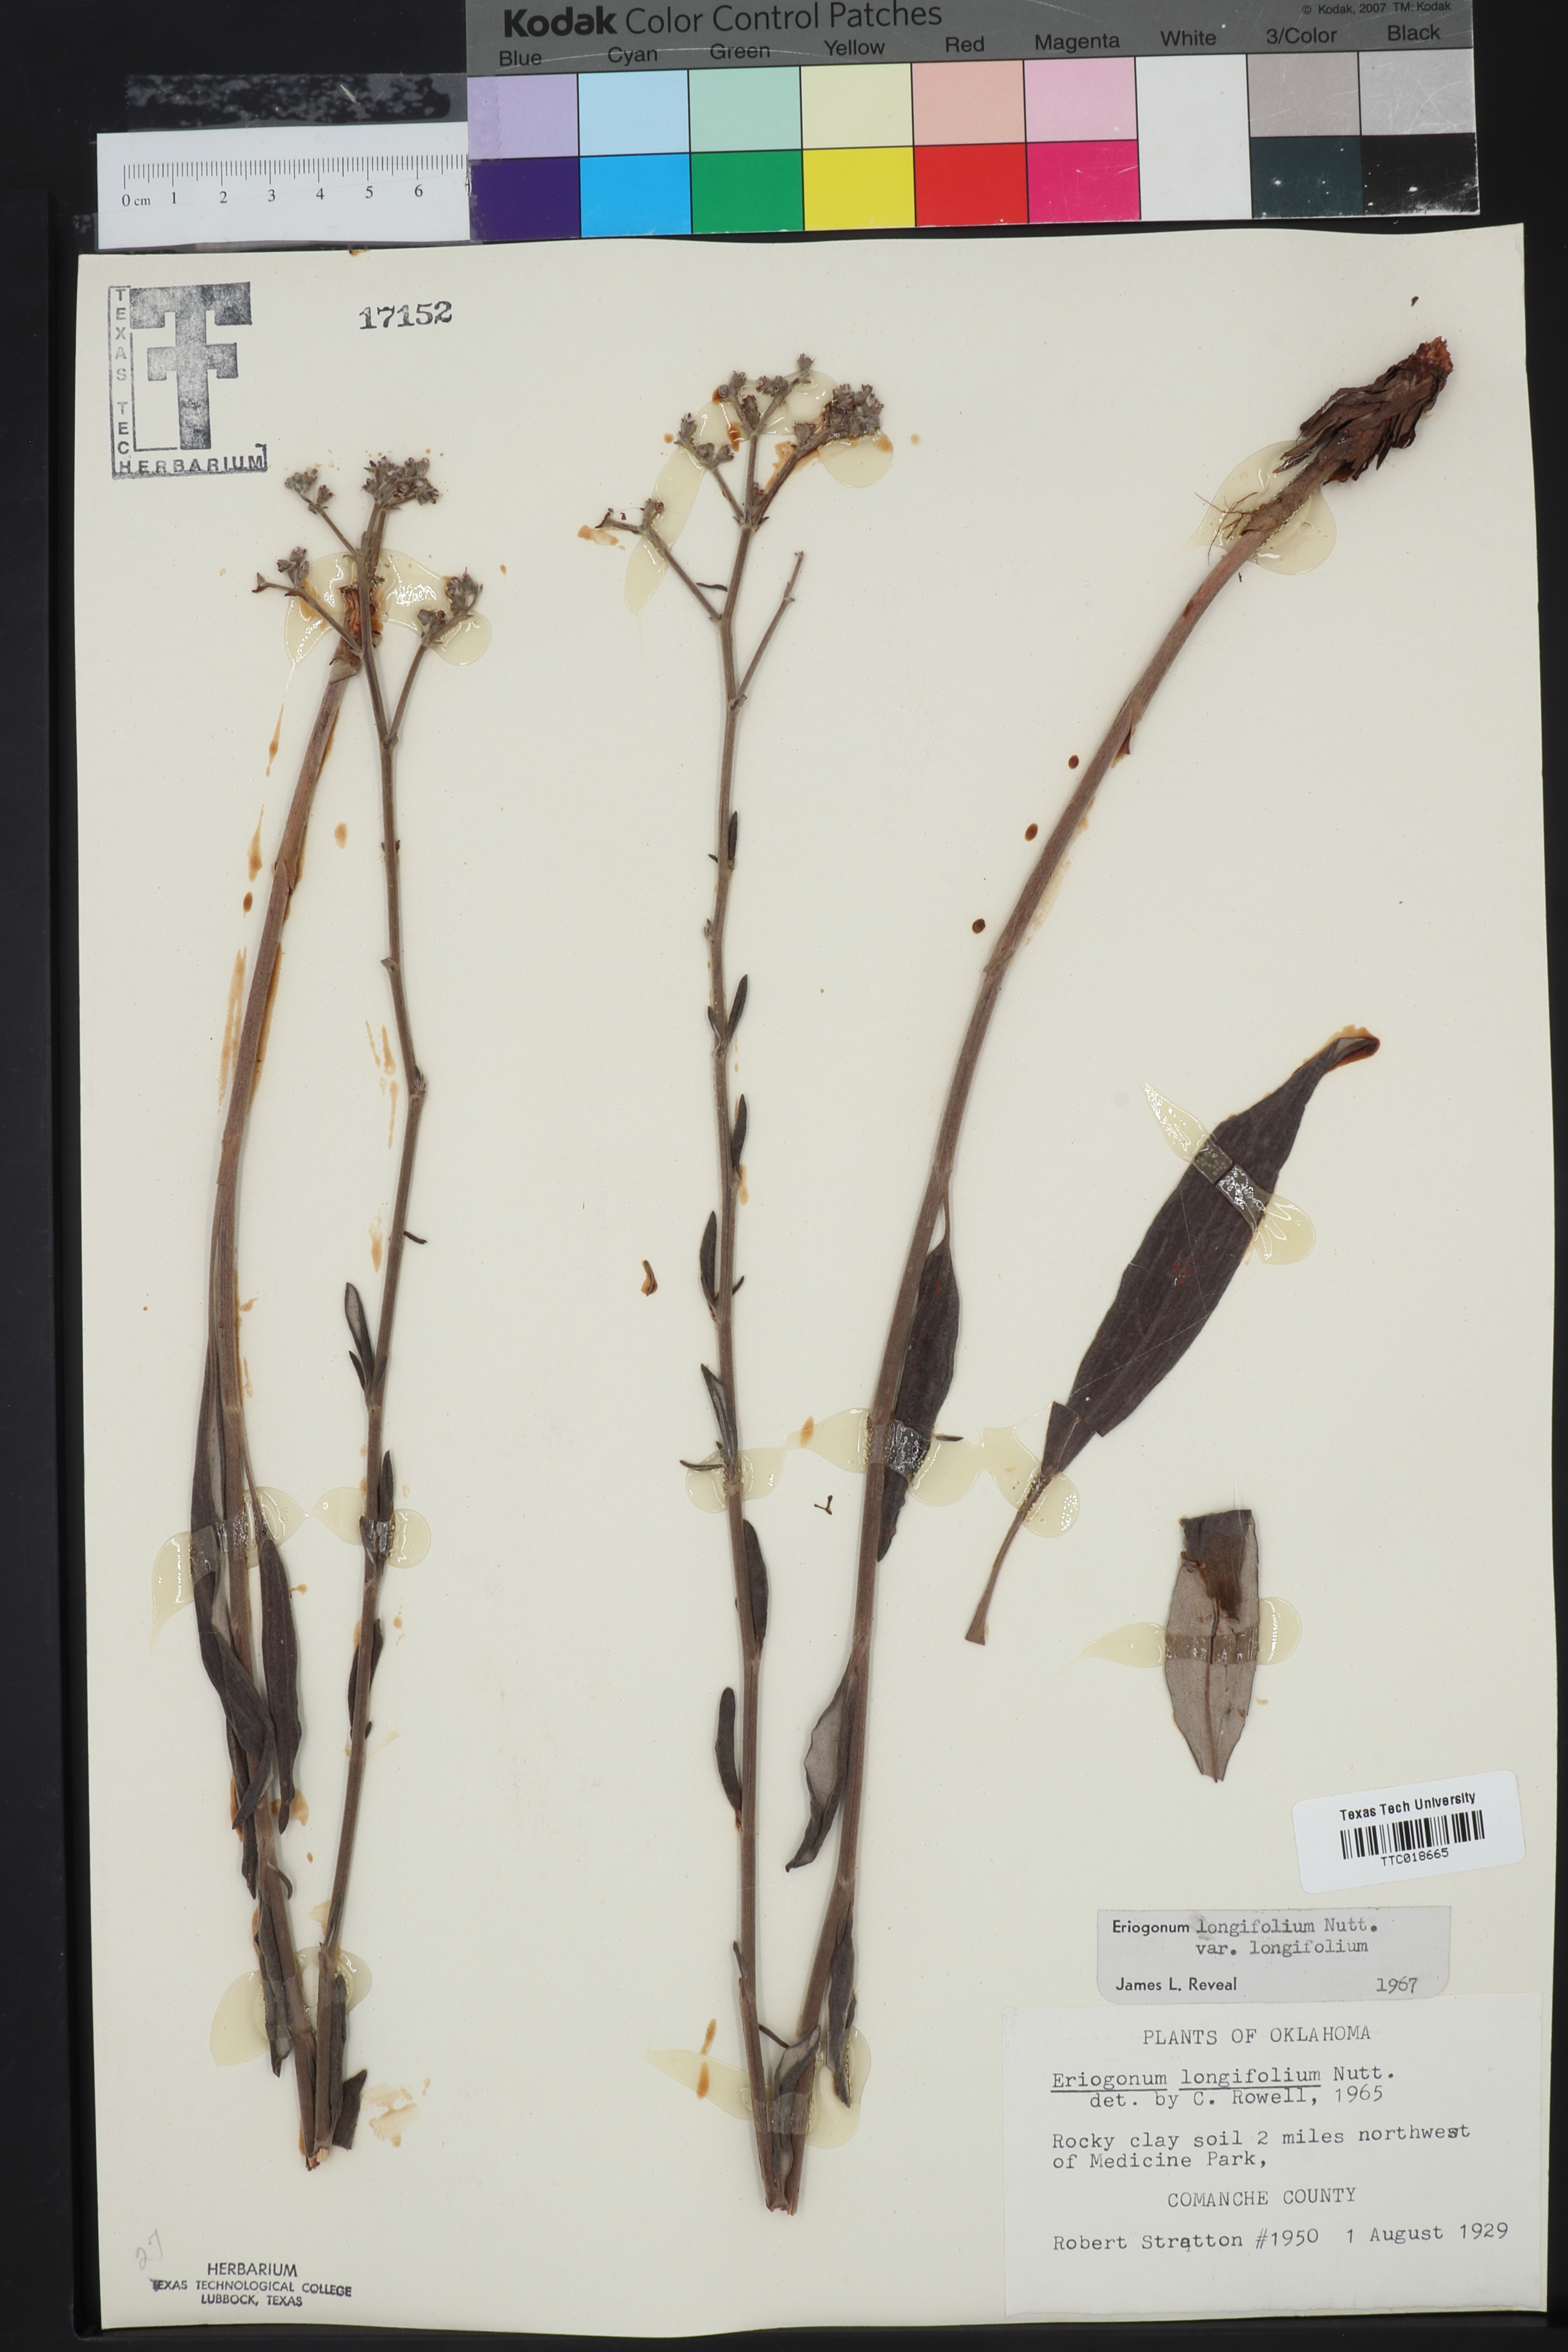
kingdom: Plantae
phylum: Tracheophyta
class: Magnoliopsida
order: Caryophyllales
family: Polygonaceae
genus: Eriogonum
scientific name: Eriogonum longifolium
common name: Longleaf wild buckwheat
